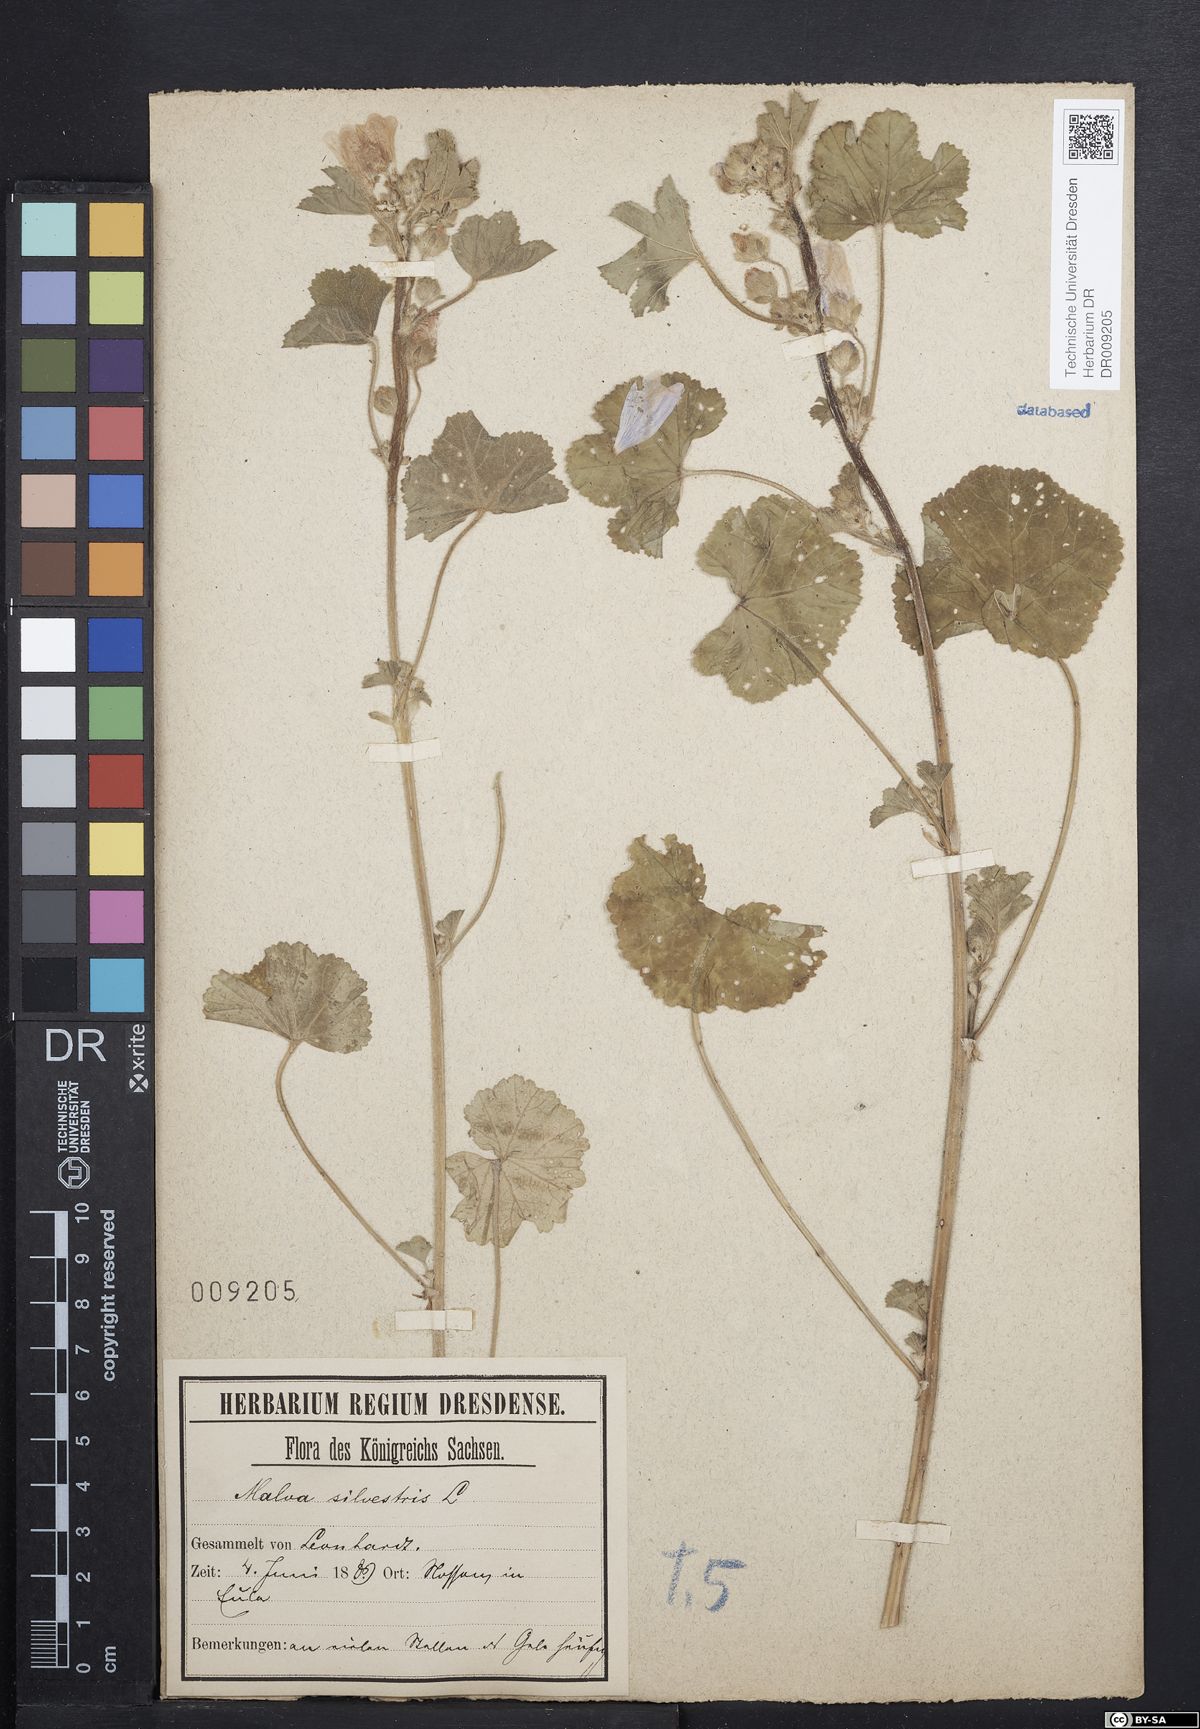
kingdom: Plantae
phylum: Tracheophyta
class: Magnoliopsida
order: Malvales
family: Malvaceae
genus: Malva
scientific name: Malva sylvestris
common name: Common mallow
